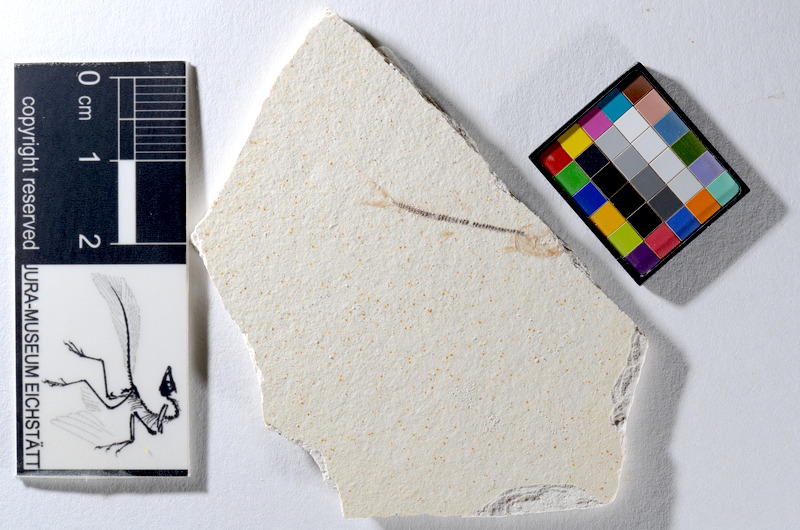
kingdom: Animalia
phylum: Chordata
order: Salmoniformes
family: Orthogonikleithridae
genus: Orthogonikleithrus
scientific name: Orthogonikleithrus hoelli
